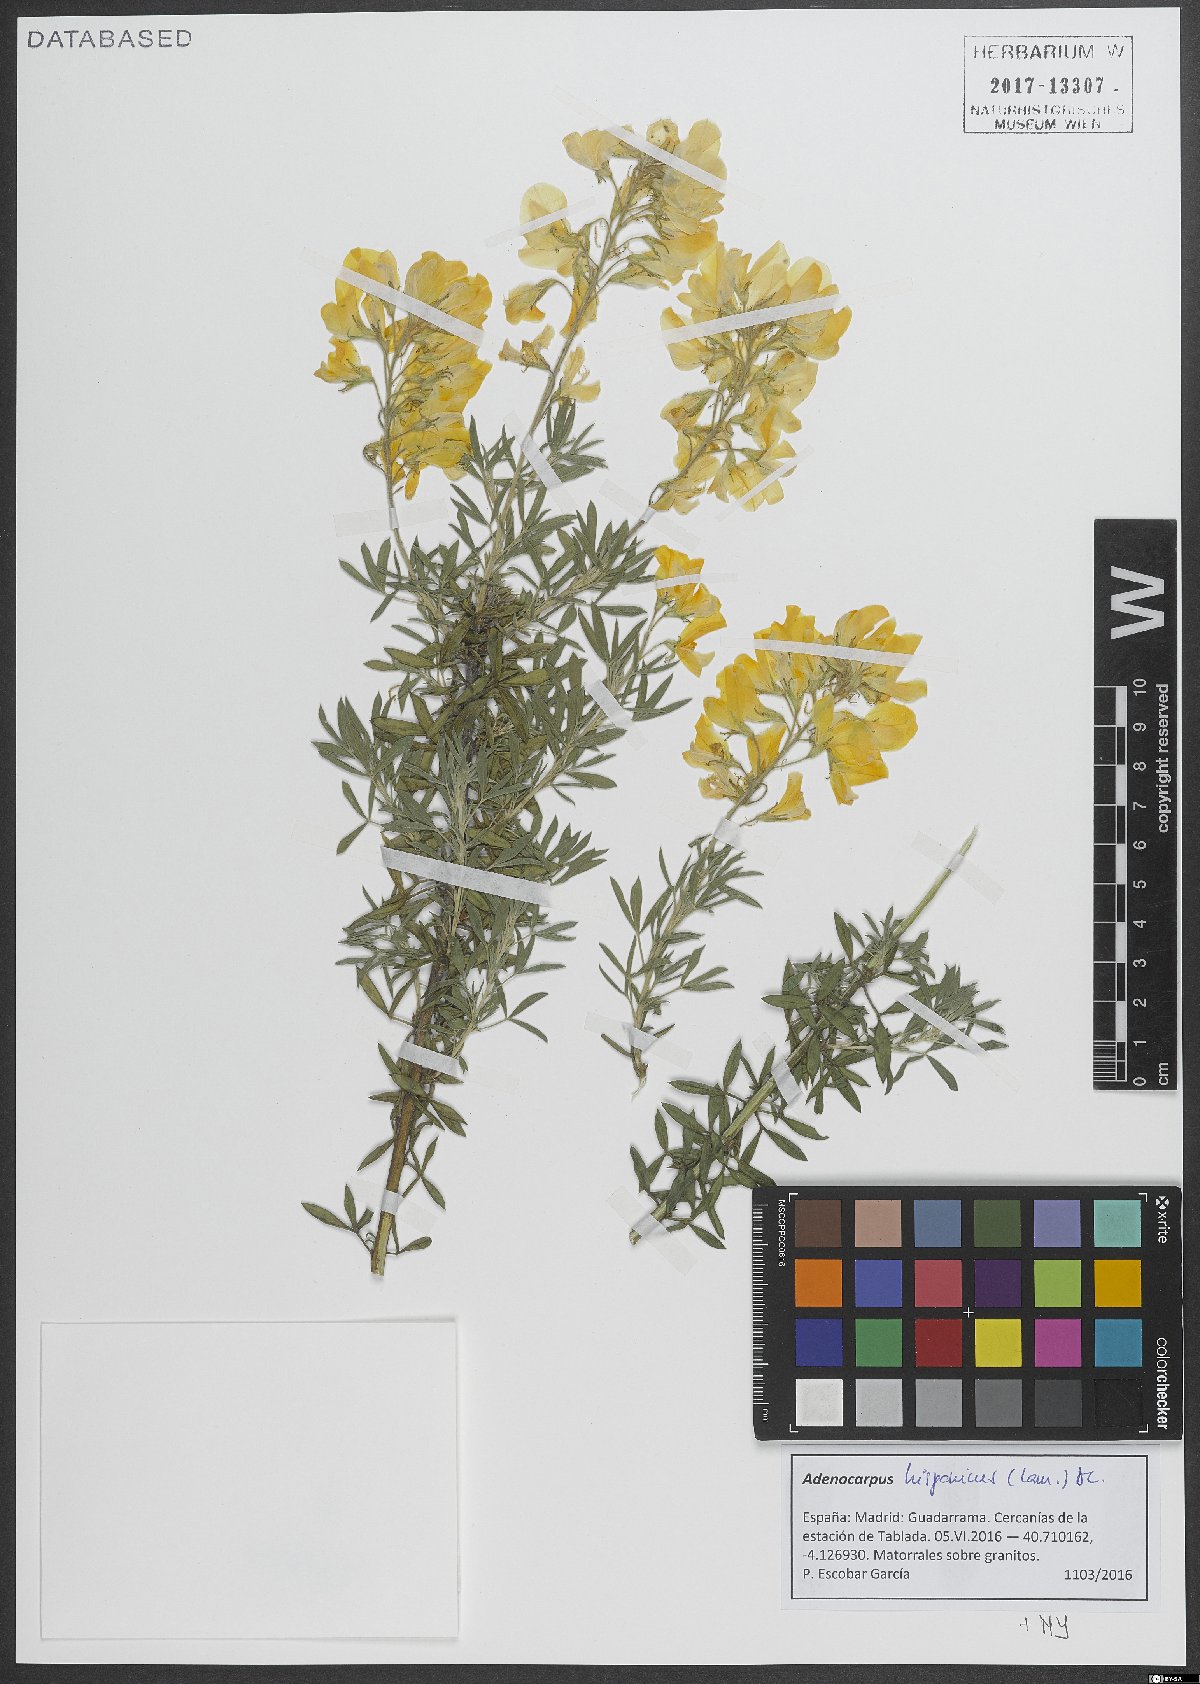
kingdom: Plantae
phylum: Tracheophyta
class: Magnoliopsida
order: Fabales
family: Fabaceae
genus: Adenocarpus
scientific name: Adenocarpus hispanicus
